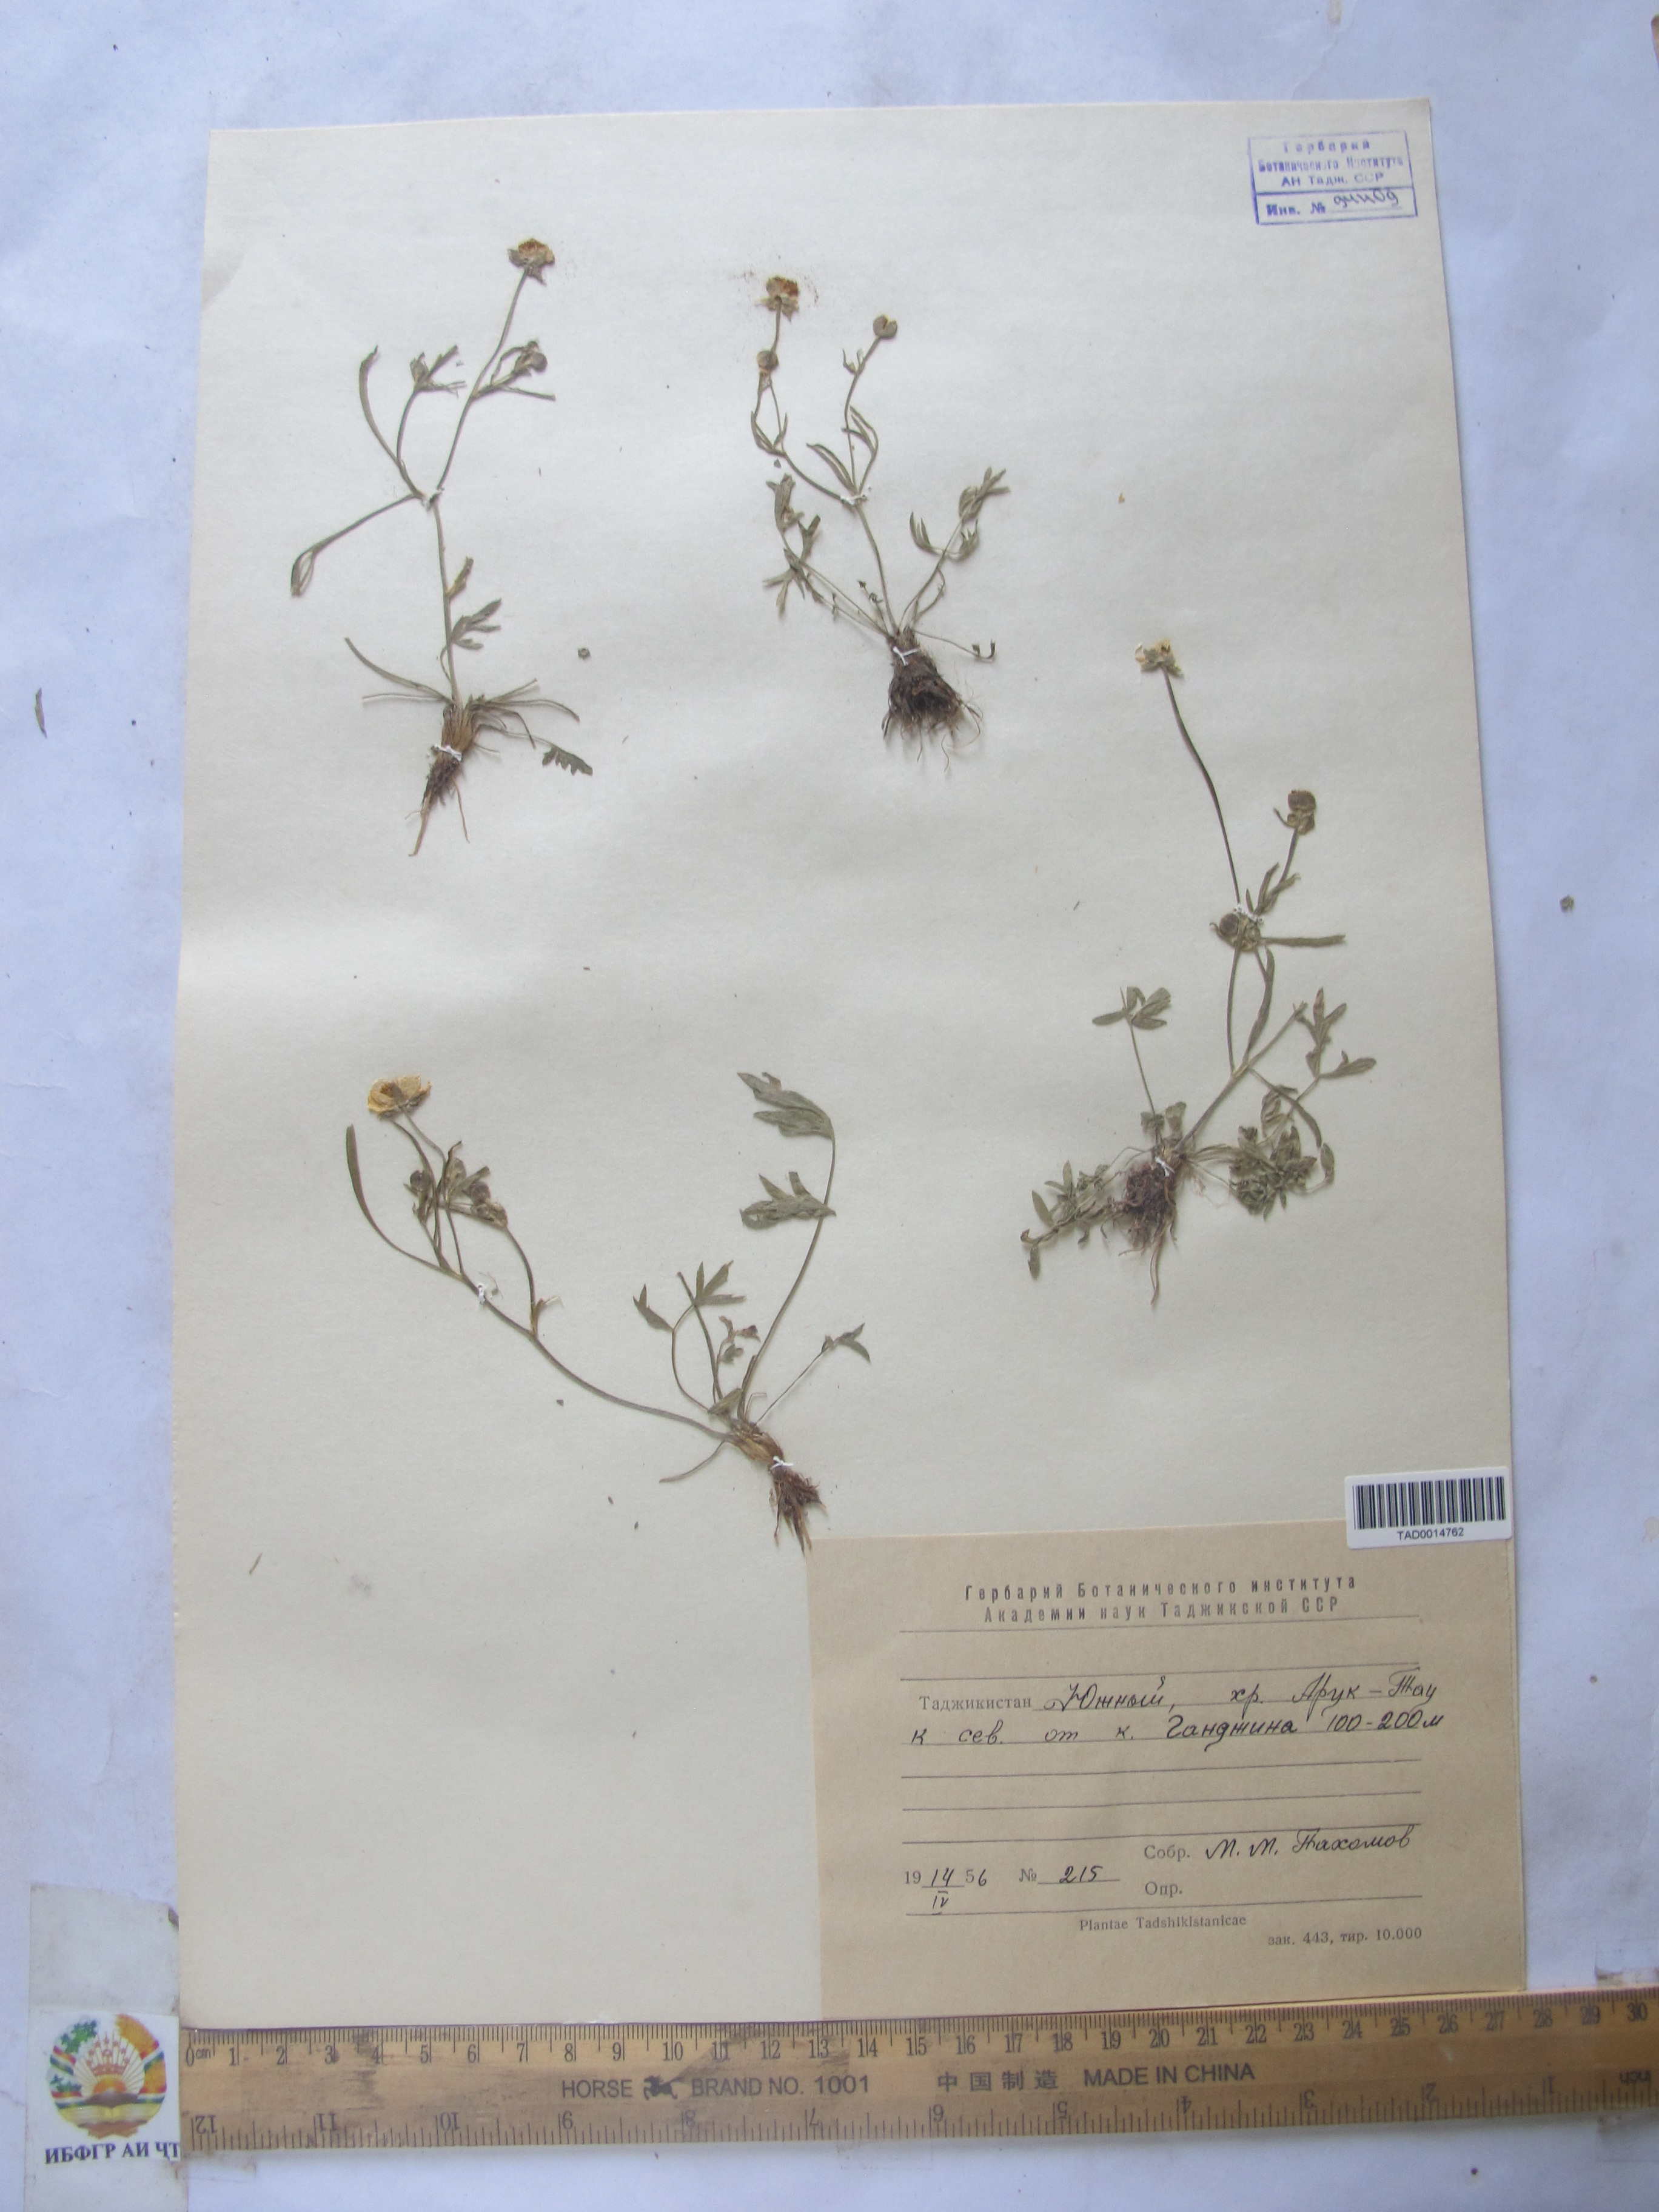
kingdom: Plantae
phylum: Tracheophyta
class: Magnoliopsida
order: Ranunculales
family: Ranunculaceae
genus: Ranunculus
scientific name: Ranunculus pinnatisectus
